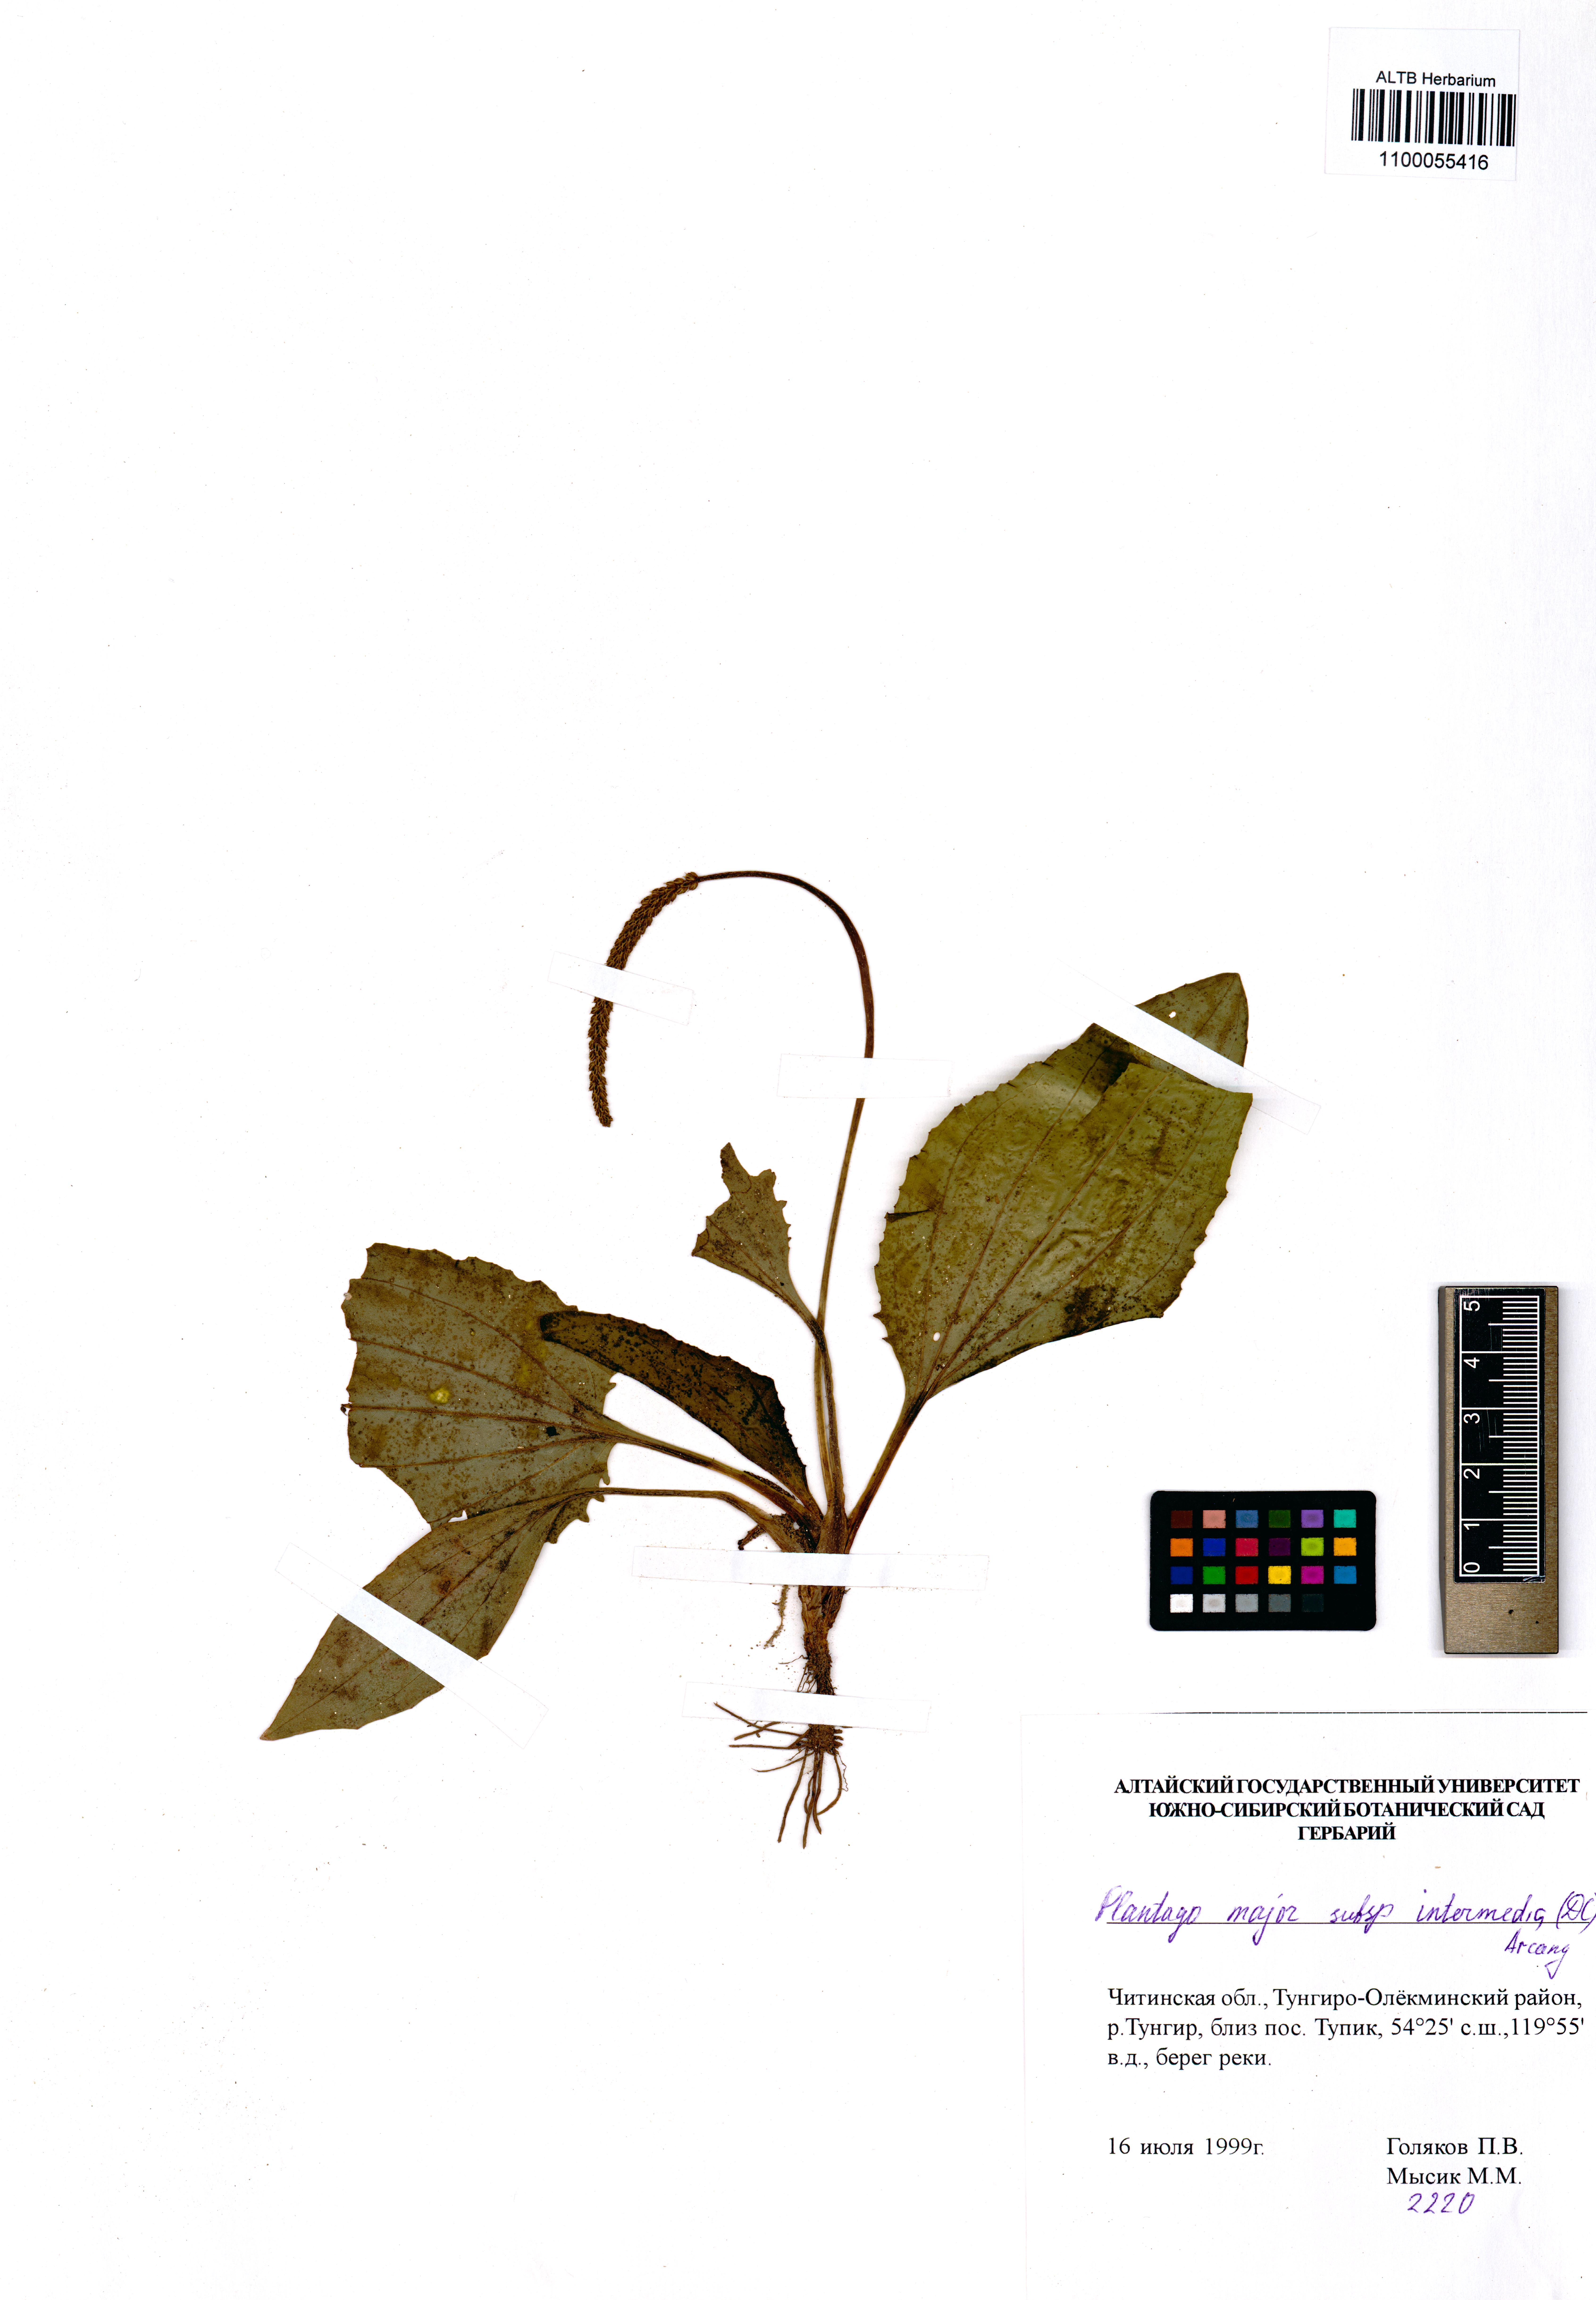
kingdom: Plantae
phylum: Tracheophyta
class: Magnoliopsida
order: Lamiales
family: Plantaginaceae
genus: Plantago
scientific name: Plantago uliginosa
